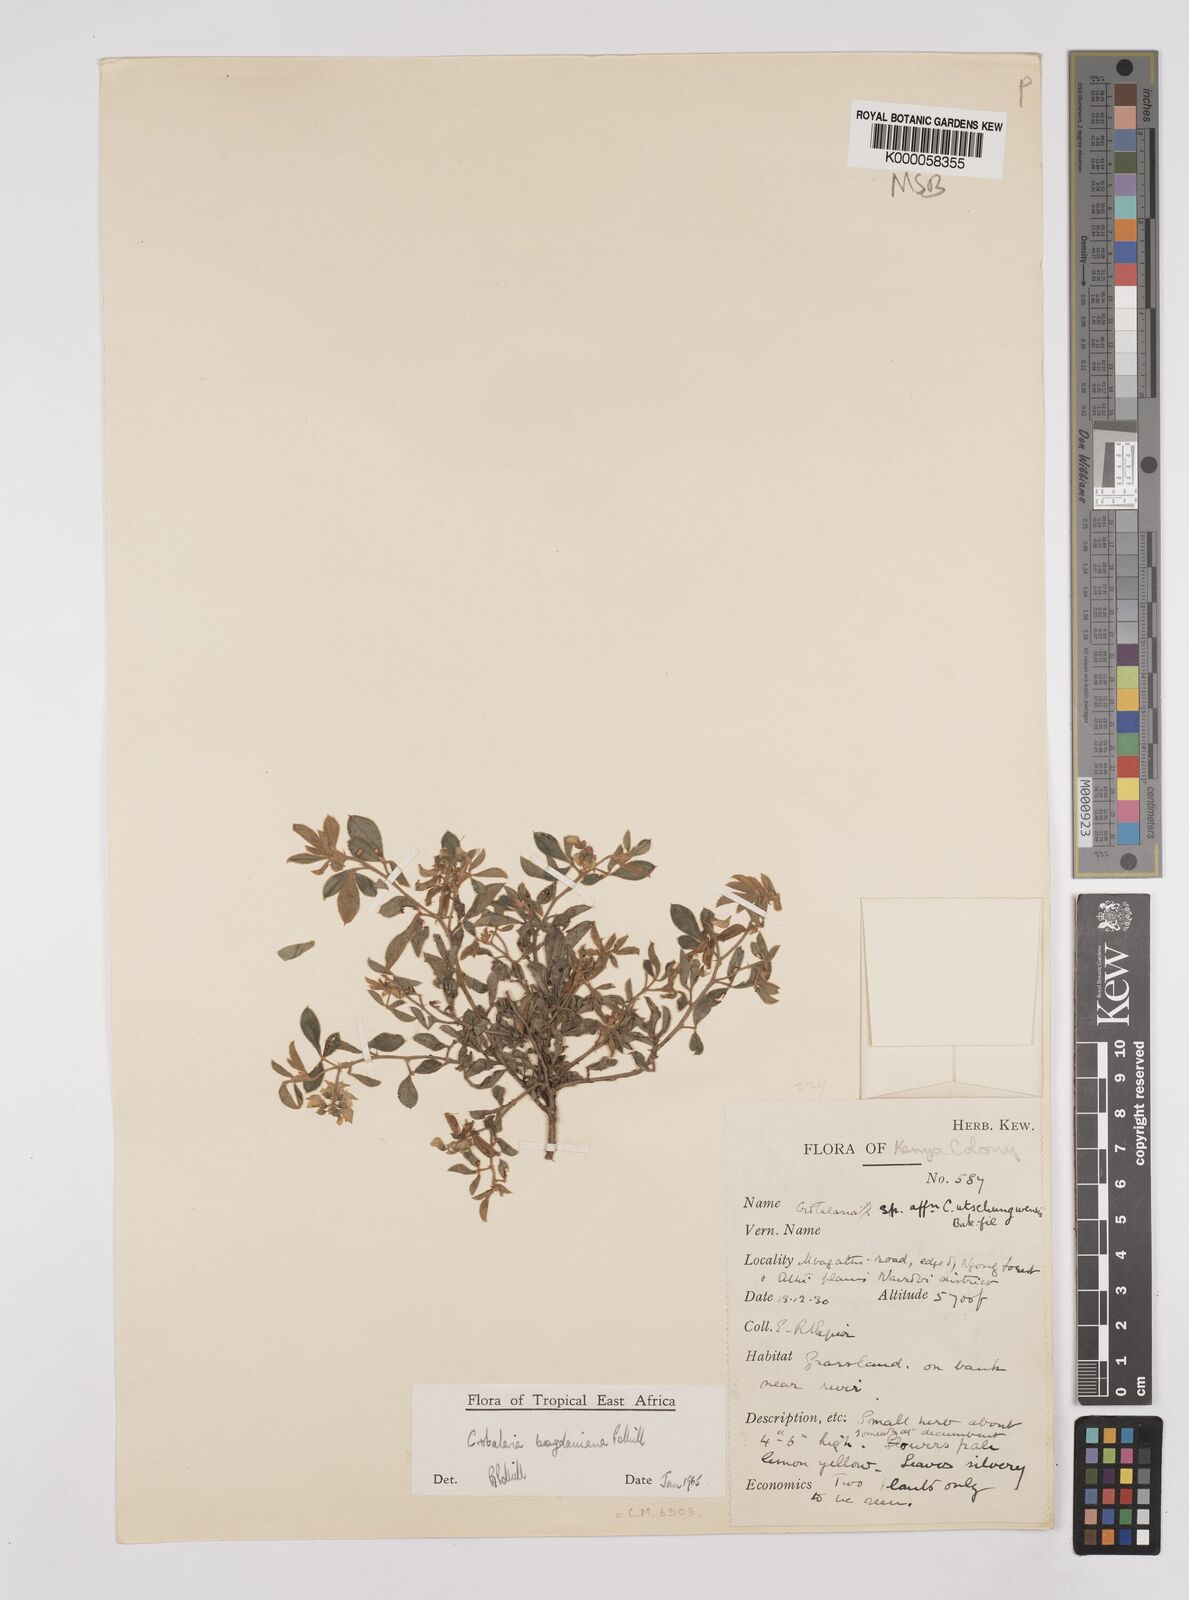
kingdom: Plantae
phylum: Tracheophyta
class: Magnoliopsida
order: Fabales
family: Fabaceae
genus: Crotalaria
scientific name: Crotalaria bogdaniana
